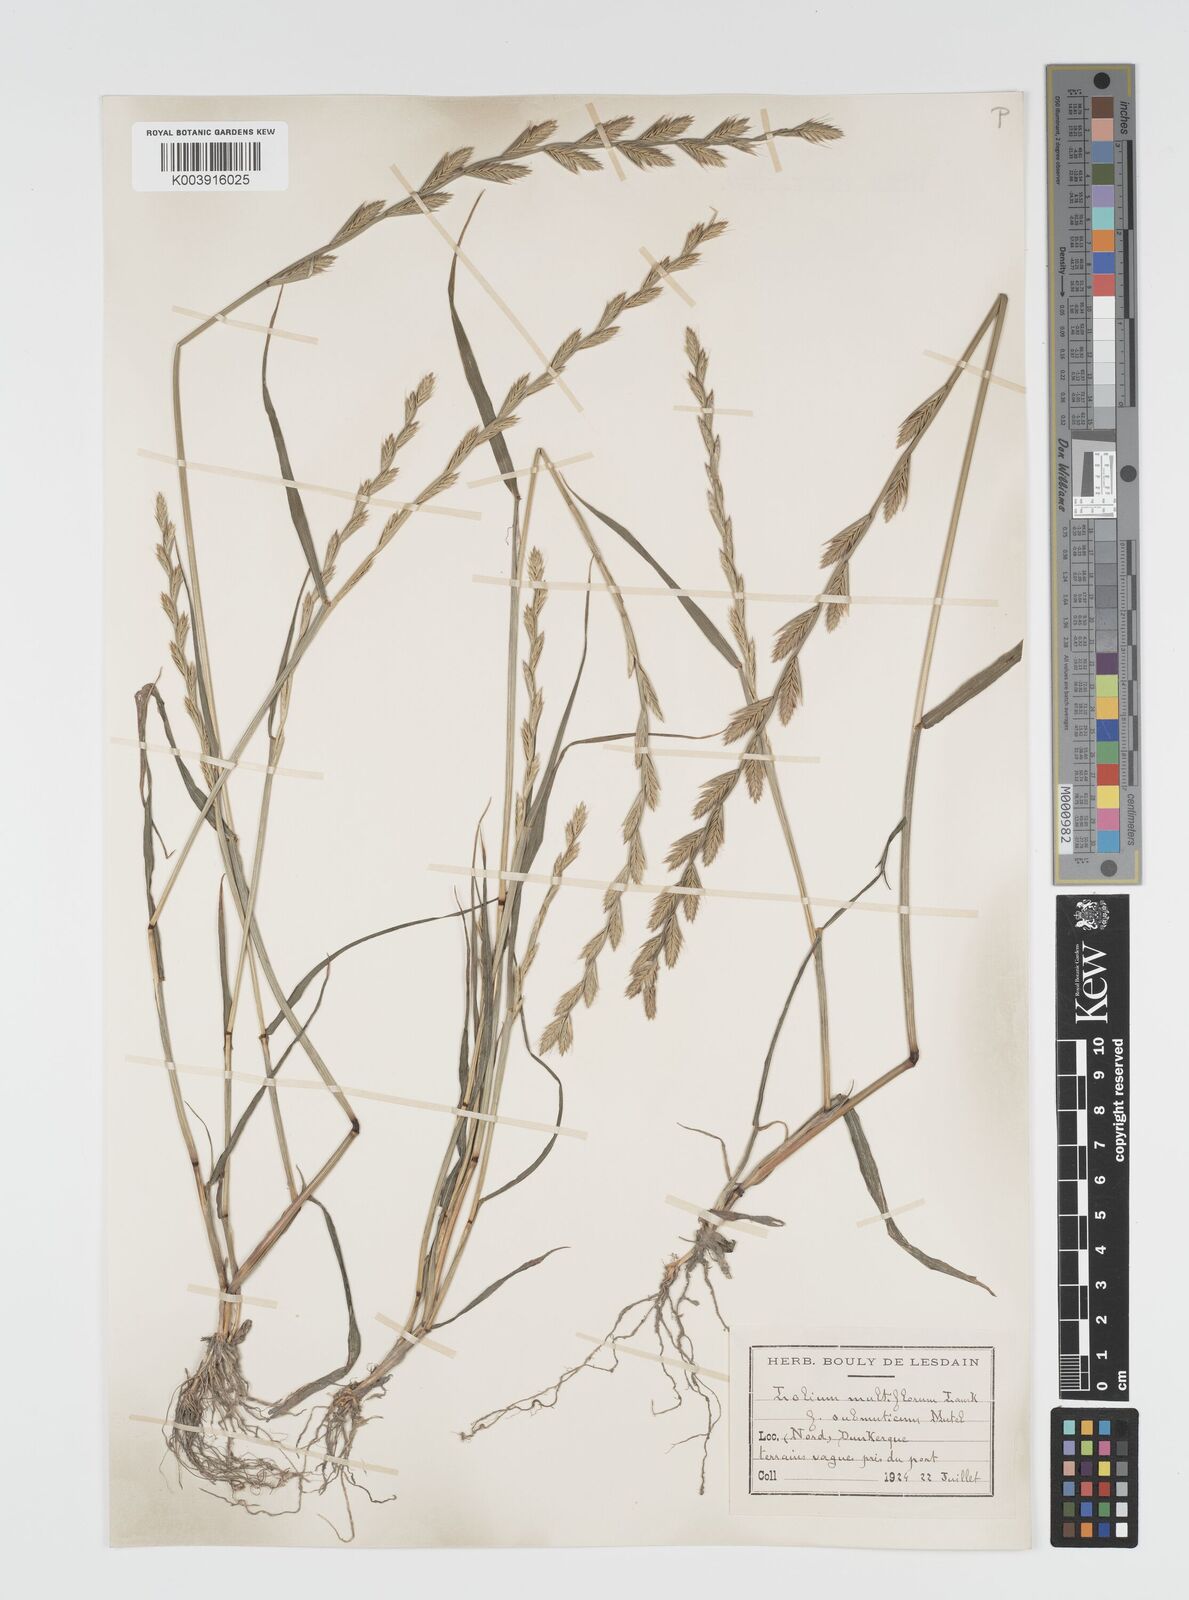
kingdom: Plantae
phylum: Tracheophyta
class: Liliopsida
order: Poales
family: Poaceae
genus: Lolium
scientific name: Lolium multiflorum
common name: Annual ryegrass
